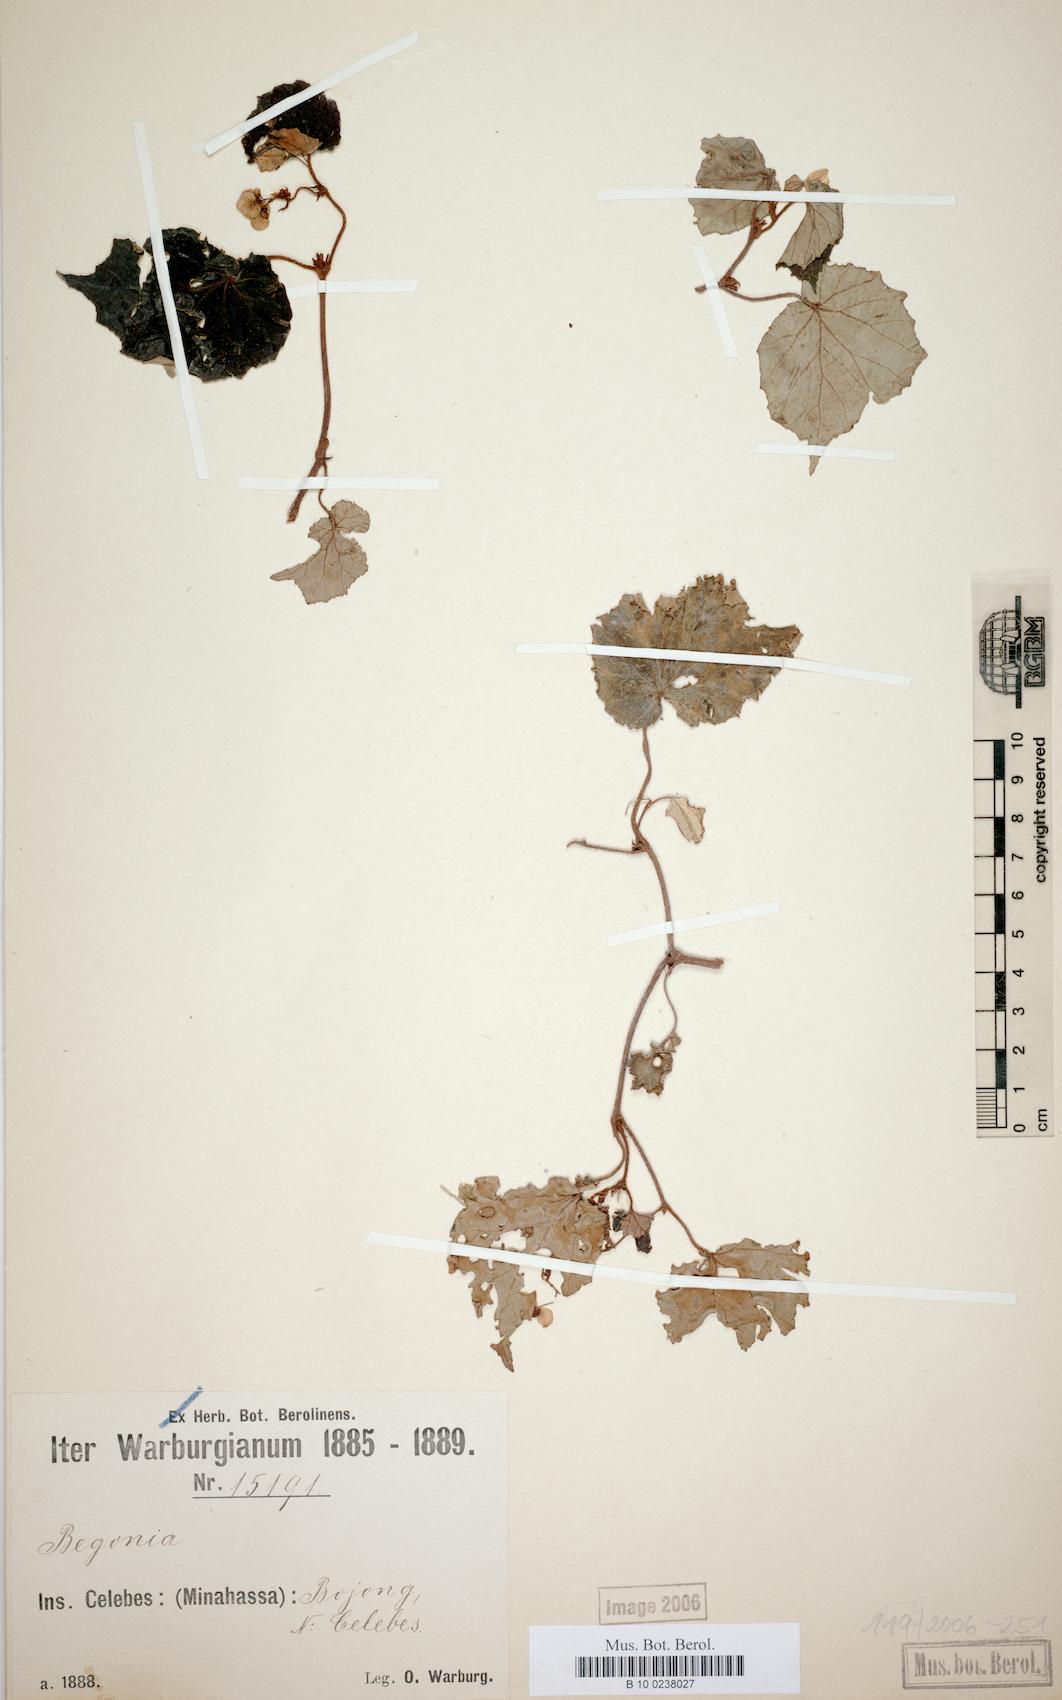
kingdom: Plantae
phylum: Tracheophyta
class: Magnoliopsida
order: Cucurbitales
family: Begoniaceae
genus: Begonia
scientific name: Begonia strachwitzii
